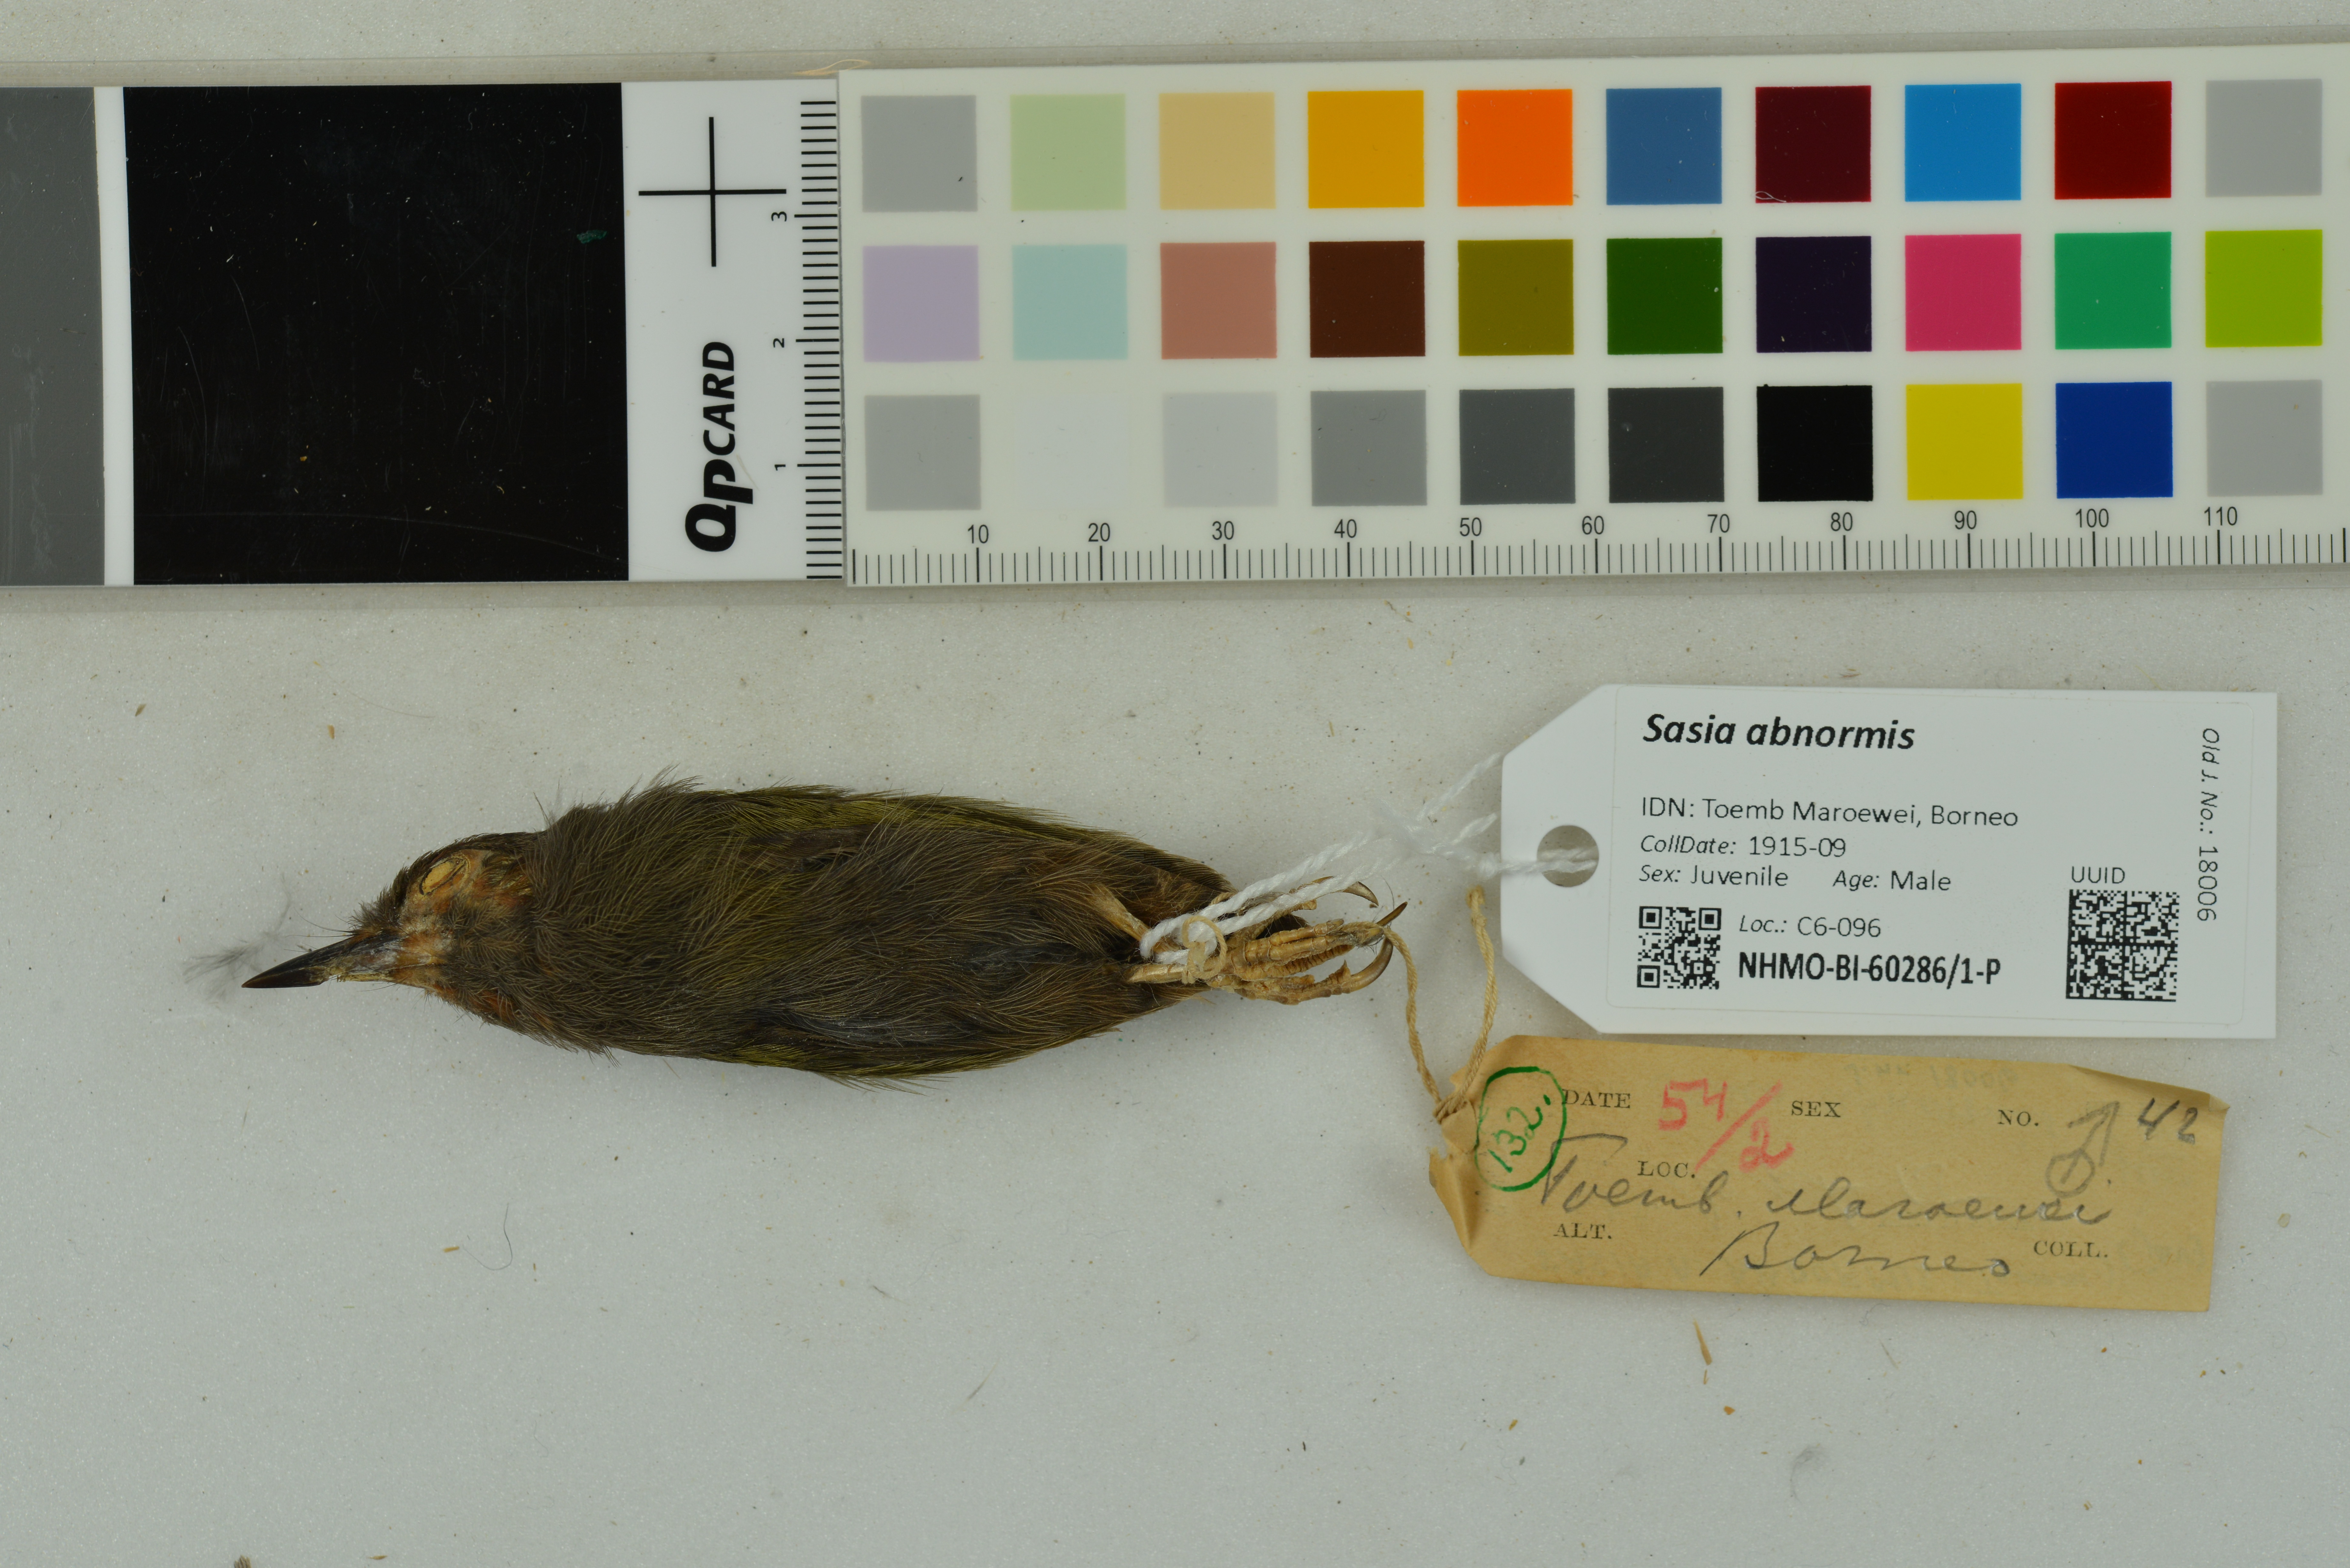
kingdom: Animalia
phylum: Chordata
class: Aves
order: Piciformes
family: Picidae
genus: Sasia
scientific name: Sasia abnormis
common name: Rufous piculet
